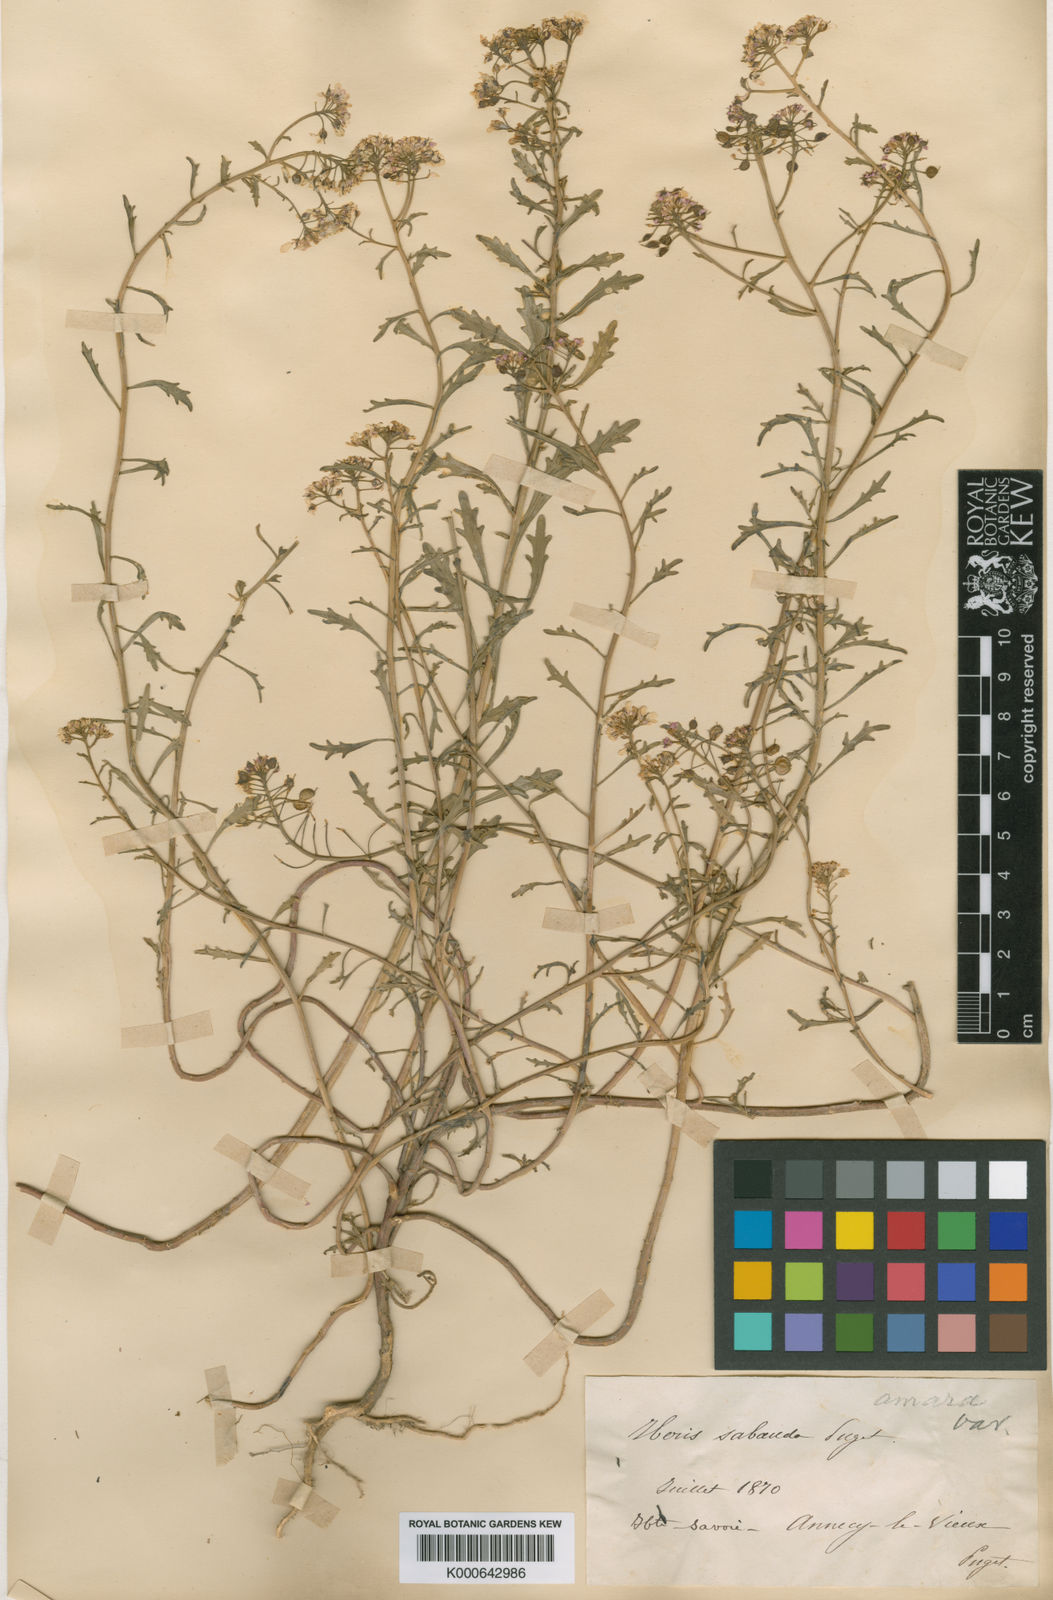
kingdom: Plantae
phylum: Tracheophyta
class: Magnoliopsida
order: Brassicales
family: Brassicaceae
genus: Iberis
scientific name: Iberis amara
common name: Annual candytuft
